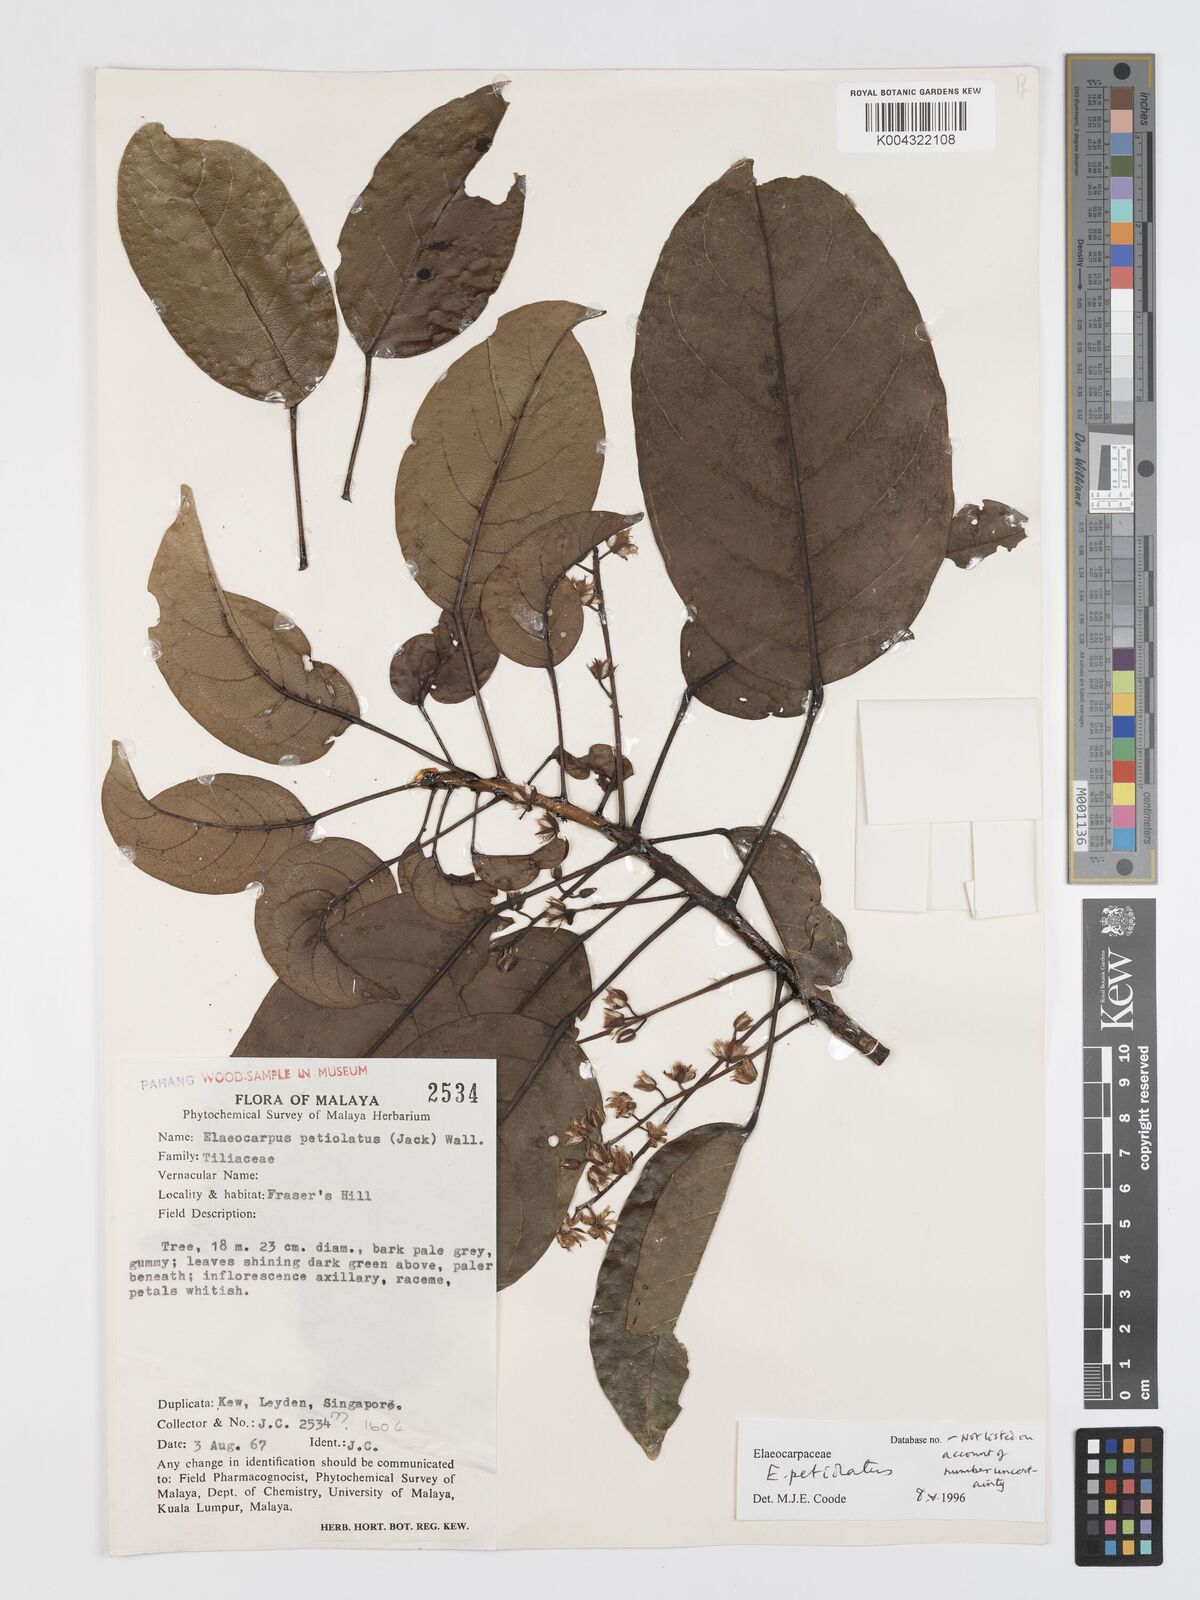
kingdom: Plantae
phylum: Tracheophyta
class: Magnoliopsida
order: Oxalidales
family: Elaeocarpaceae
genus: Elaeocarpus
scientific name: Elaeocarpus petiolatus
